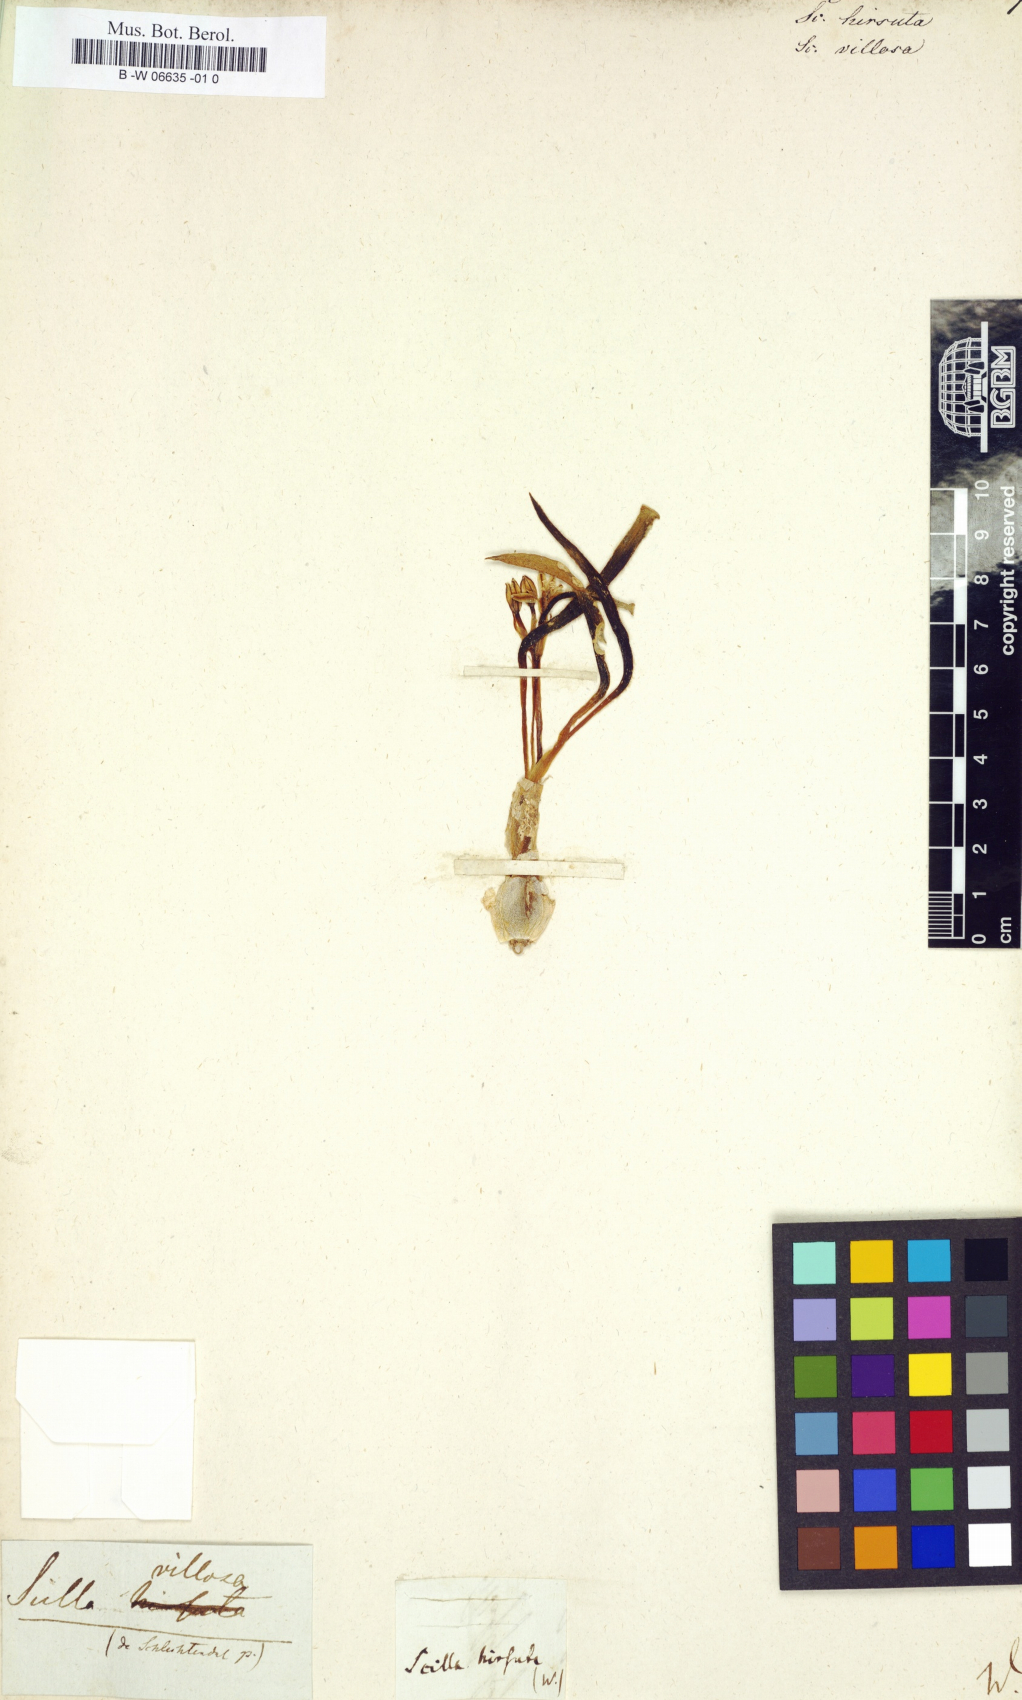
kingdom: Plantae
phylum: Tracheophyta
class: Liliopsida
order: Asparagales
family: Asparagaceae
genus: Scilla
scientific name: Scilla villosa
